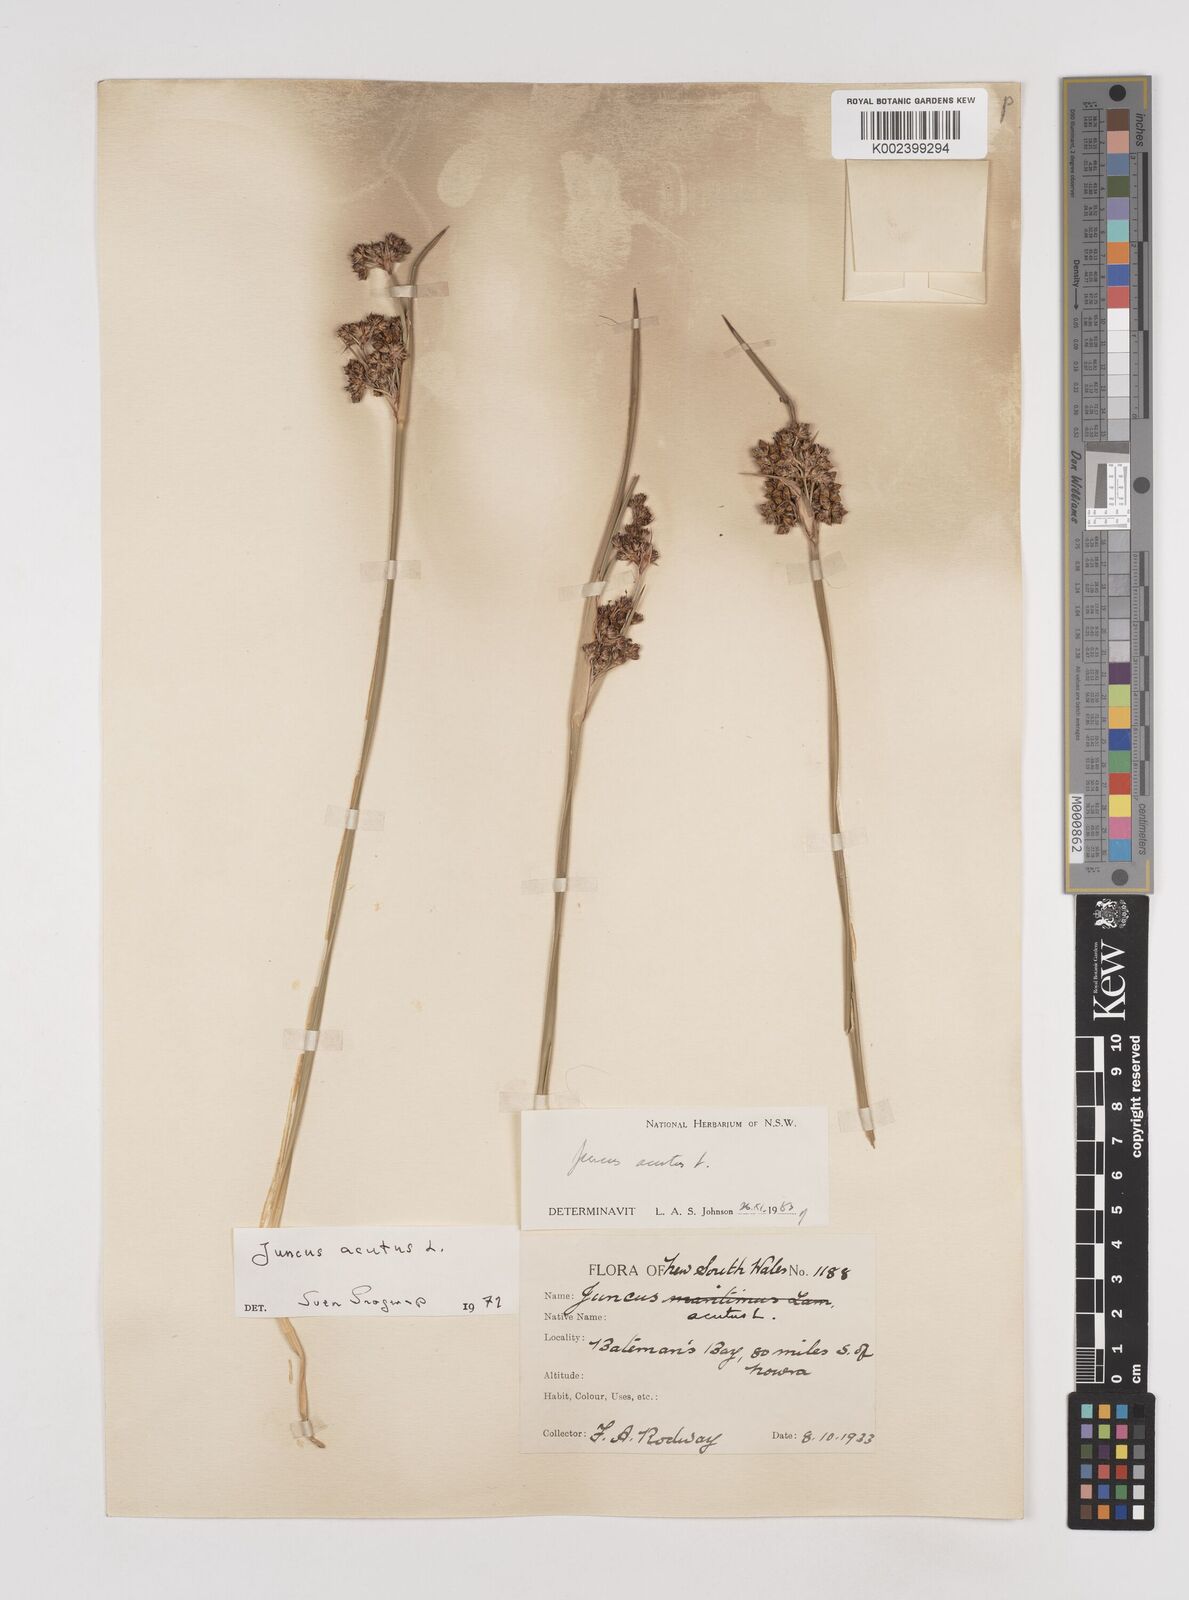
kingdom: Plantae
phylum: Tracheophyta
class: Liliopsida
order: Poales
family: Juncaceae
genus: Juncus
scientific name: Juncus acutus
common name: Sharp rush
